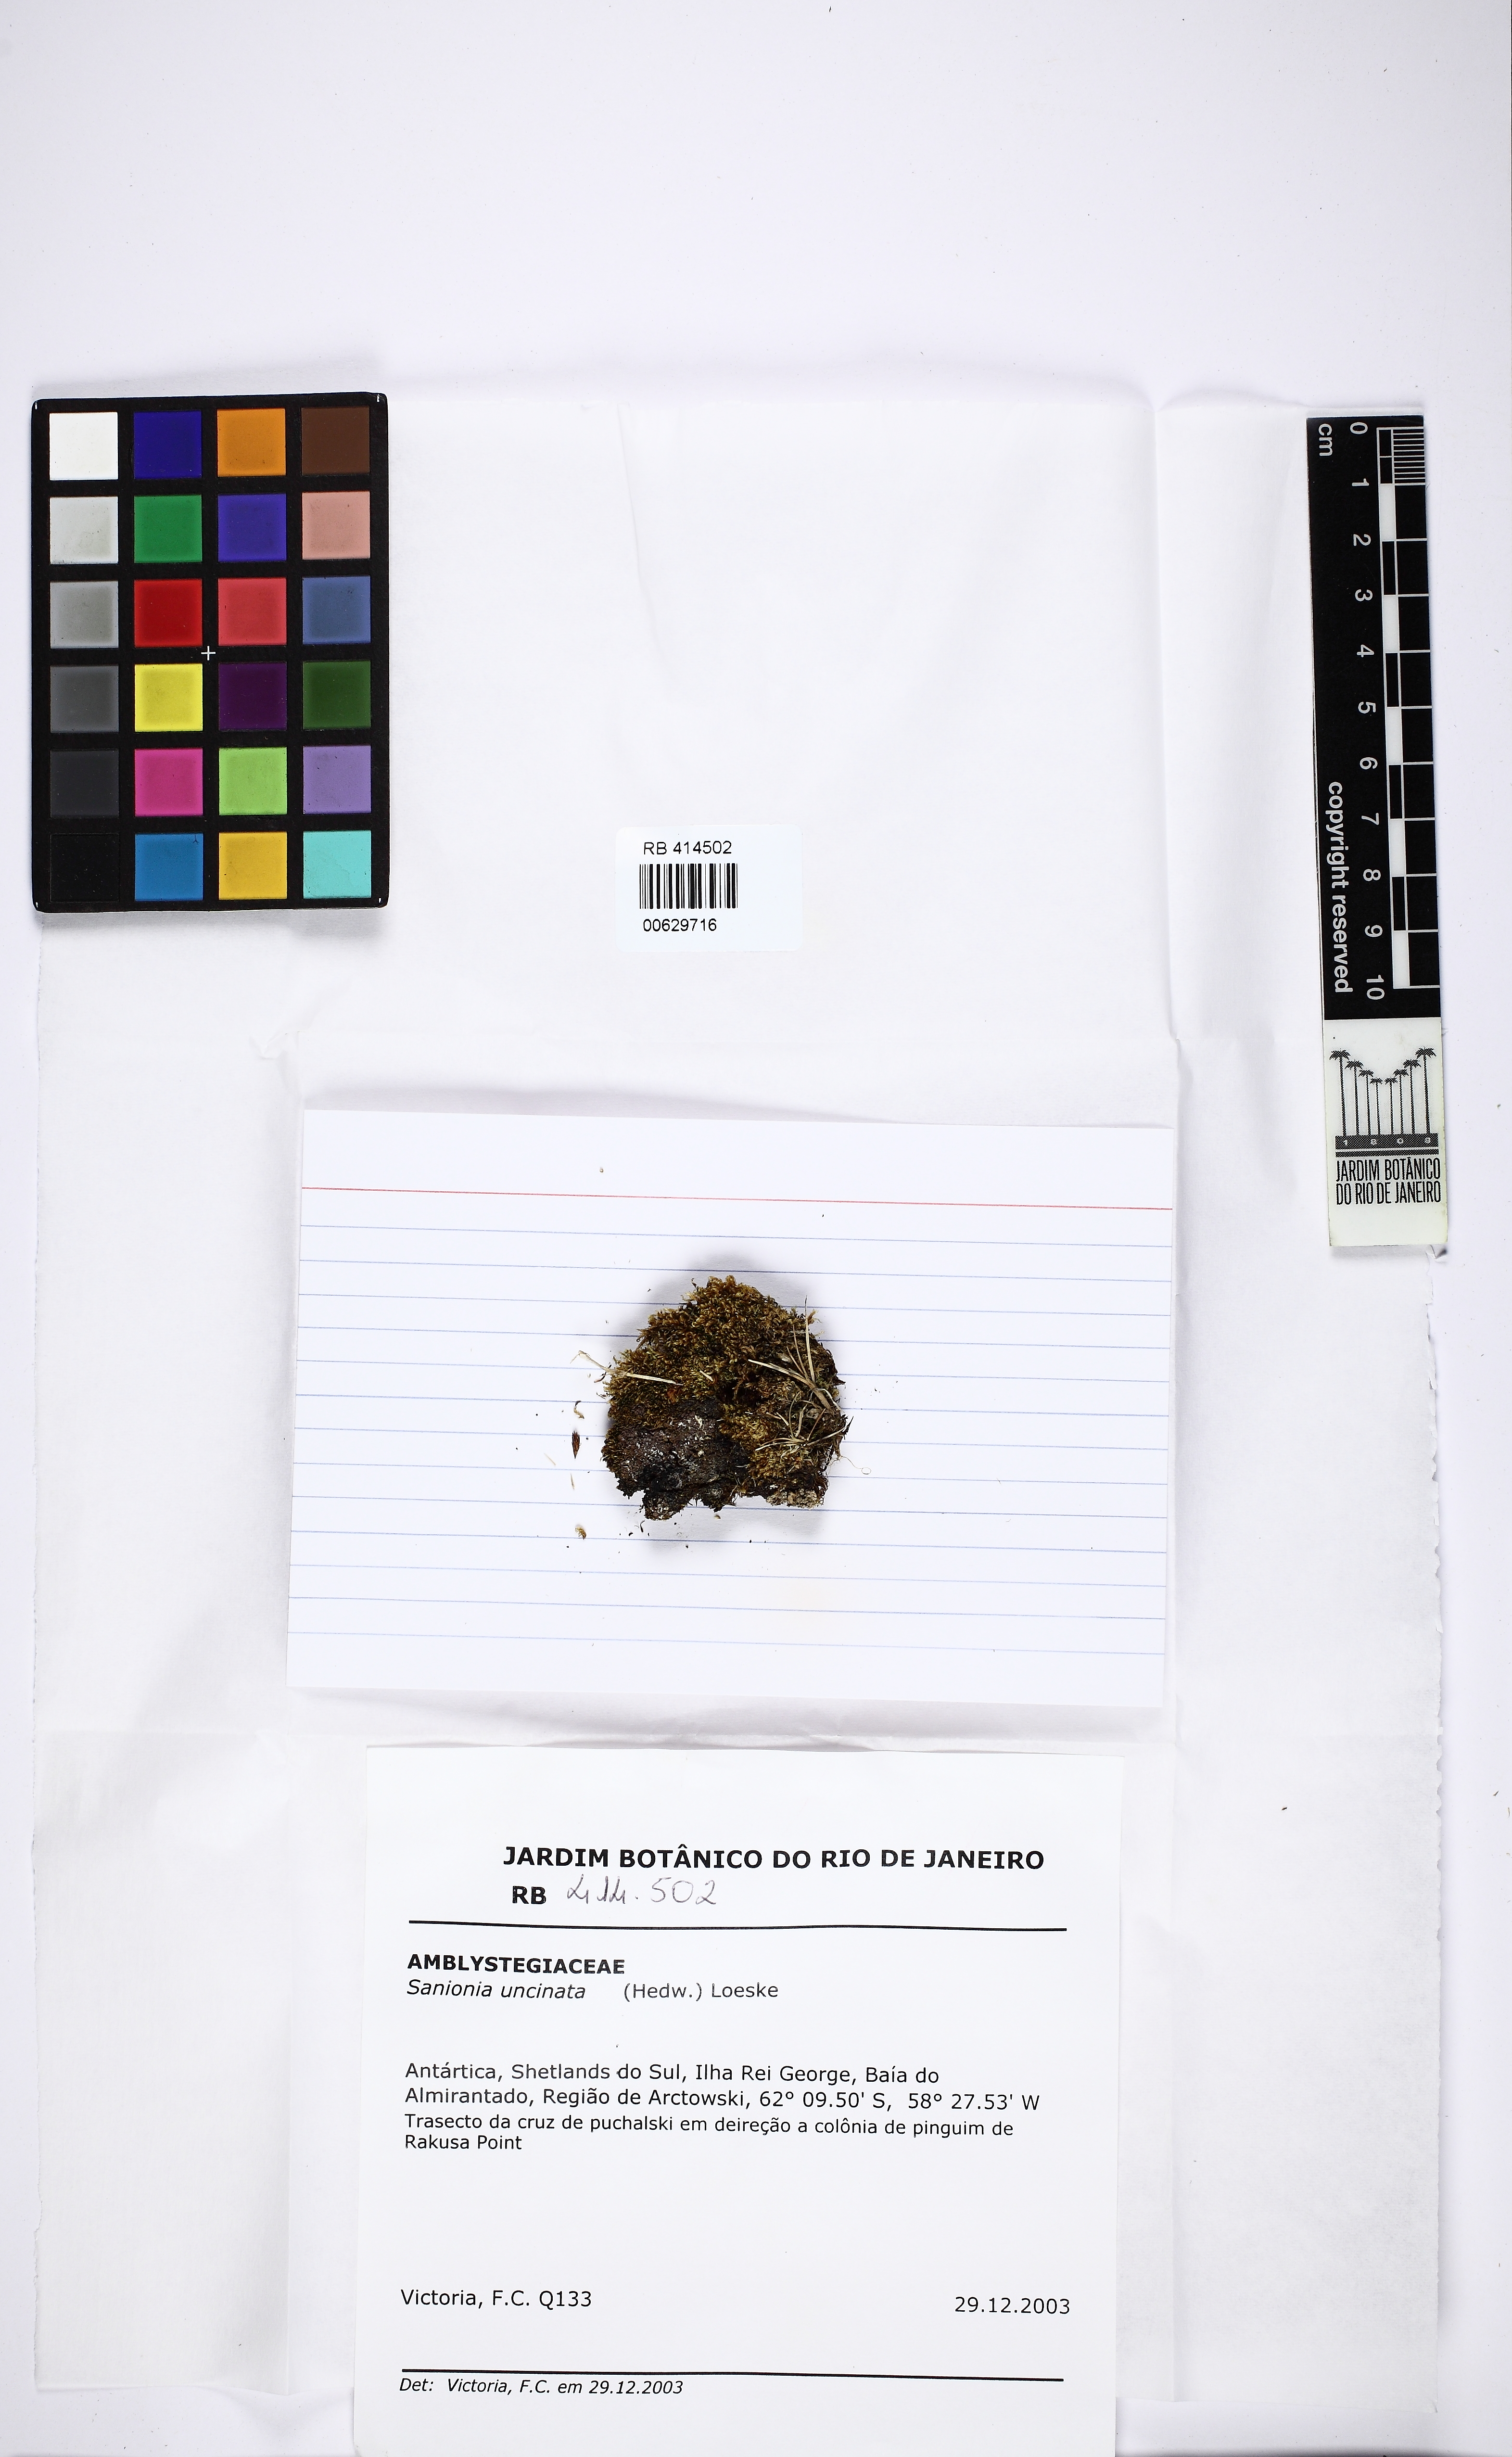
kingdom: Plantae
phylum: Bryophyta
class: Bryopsida
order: Hypnales
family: Scorpidiaceae
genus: Sanionia
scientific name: Sanionia uncinata
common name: Sickle moss
